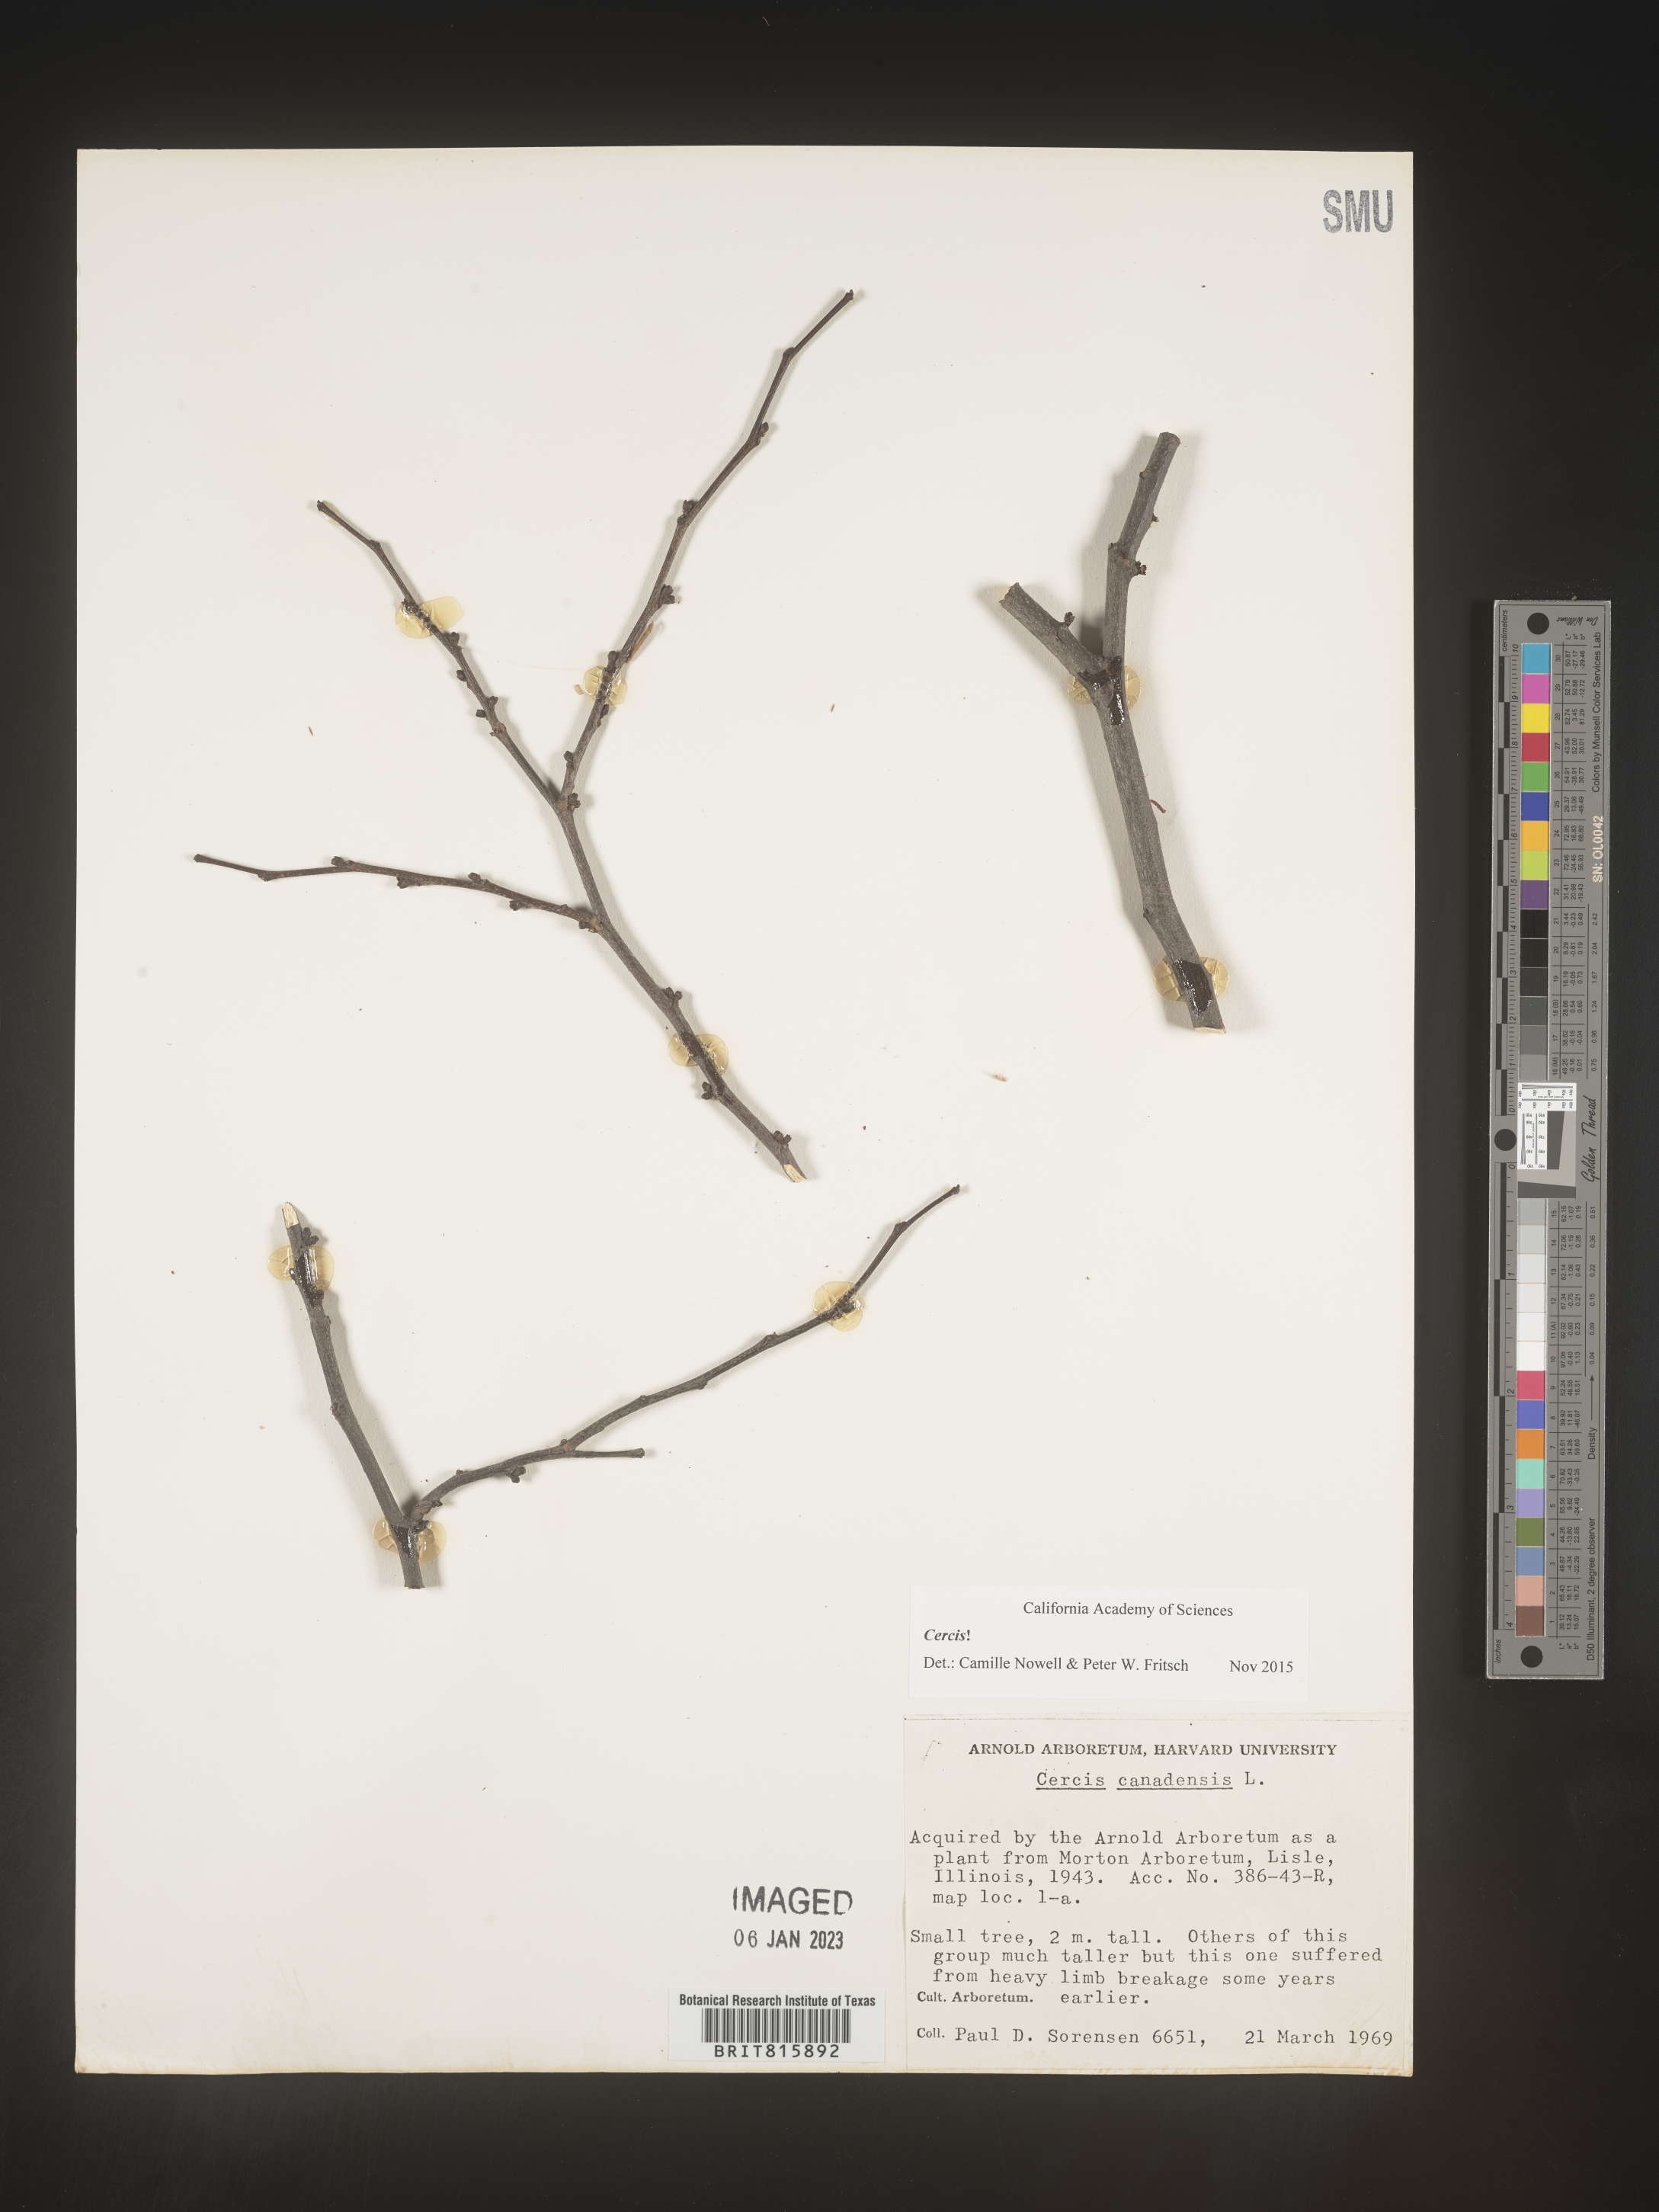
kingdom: Plantae
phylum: Tracheophyta
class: Magnoliopsida
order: Fabales
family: Fabaceae
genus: Cercis
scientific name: Cercis canadensis
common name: Eastern redbud
